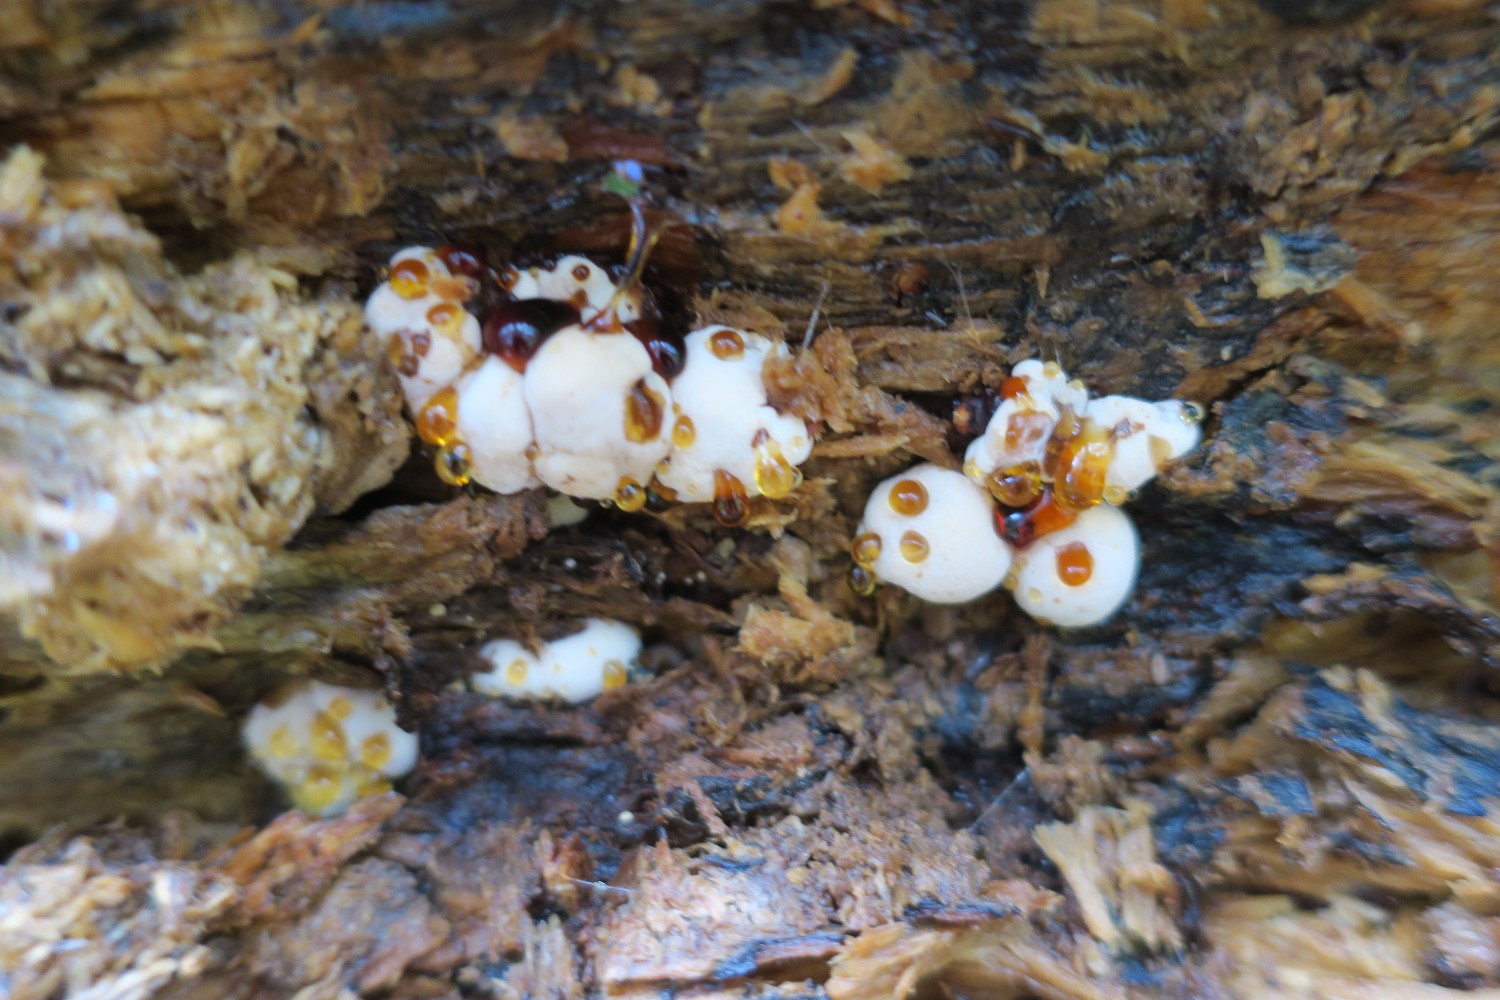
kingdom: Fungi
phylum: Basidiomycota
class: Agaricomycetes
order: Polyporales
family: Ischnodermataceae
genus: Ischnoderma
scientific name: Ischnoderma resinosum
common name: løv-tjæreporesvamp
